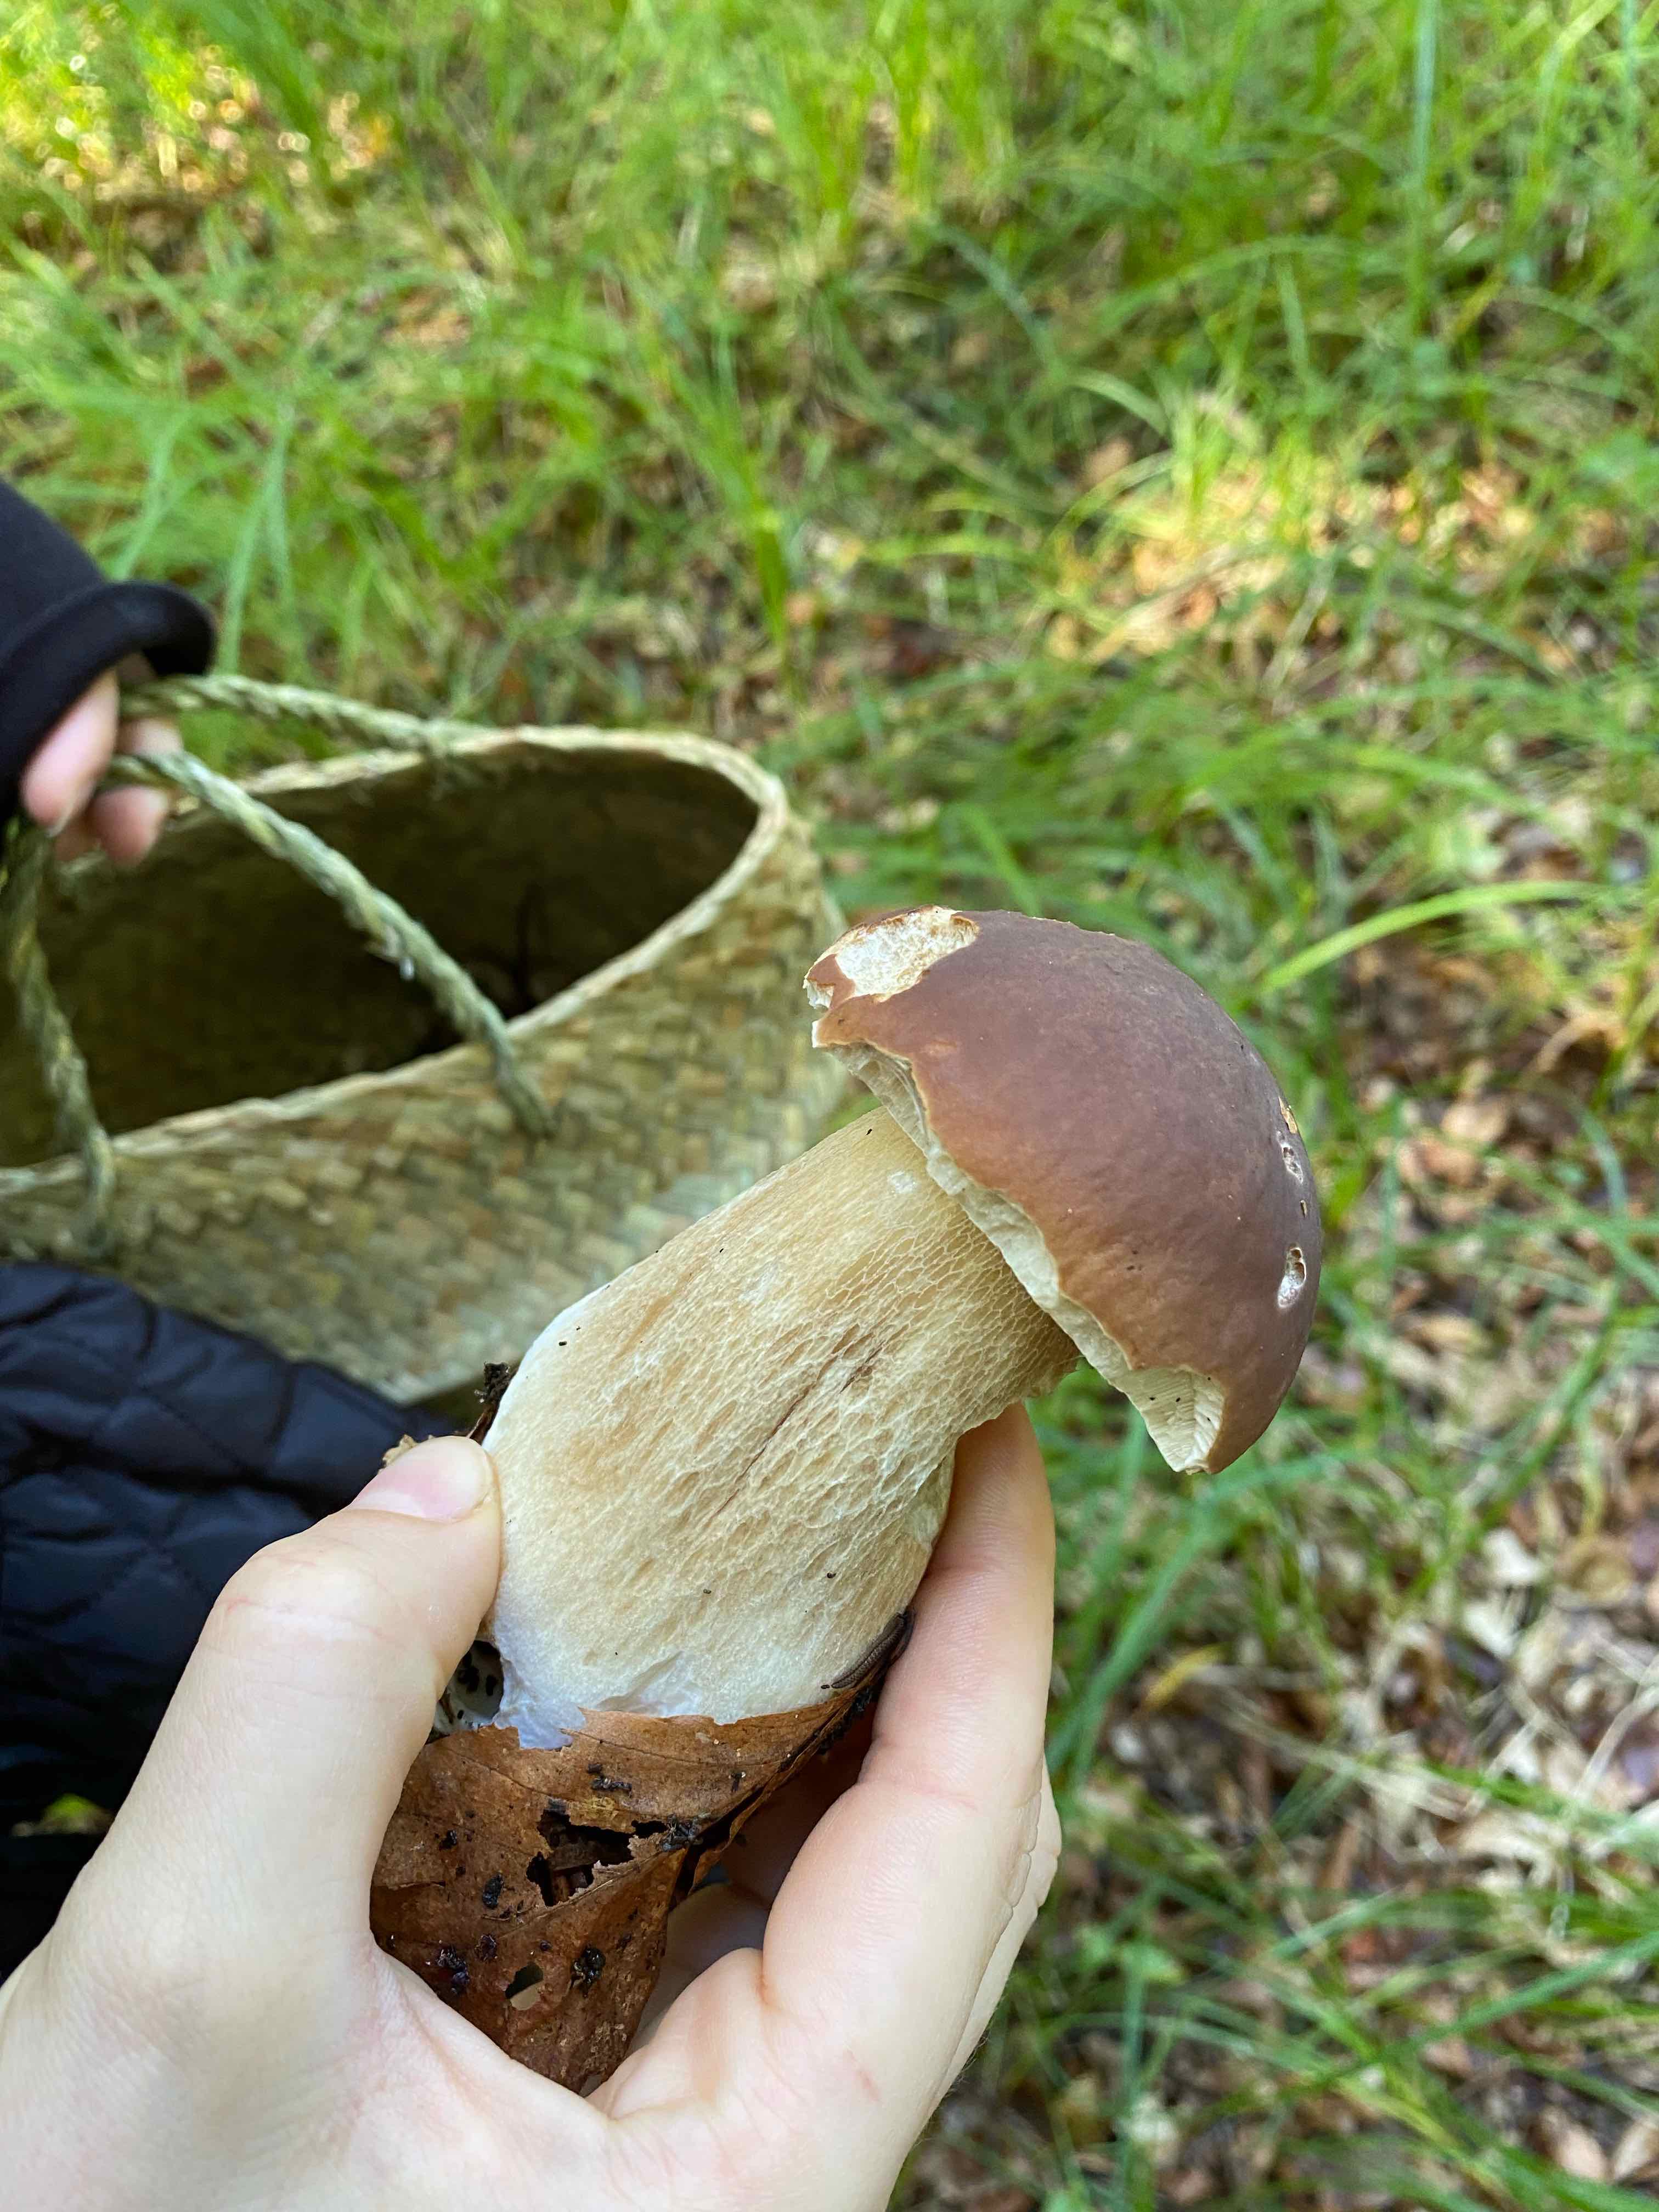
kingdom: Fungi
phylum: Basidiomycota
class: Agaricomycetes
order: Boletales
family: Boletaceae
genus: Boletus
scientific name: Boletus edulis
